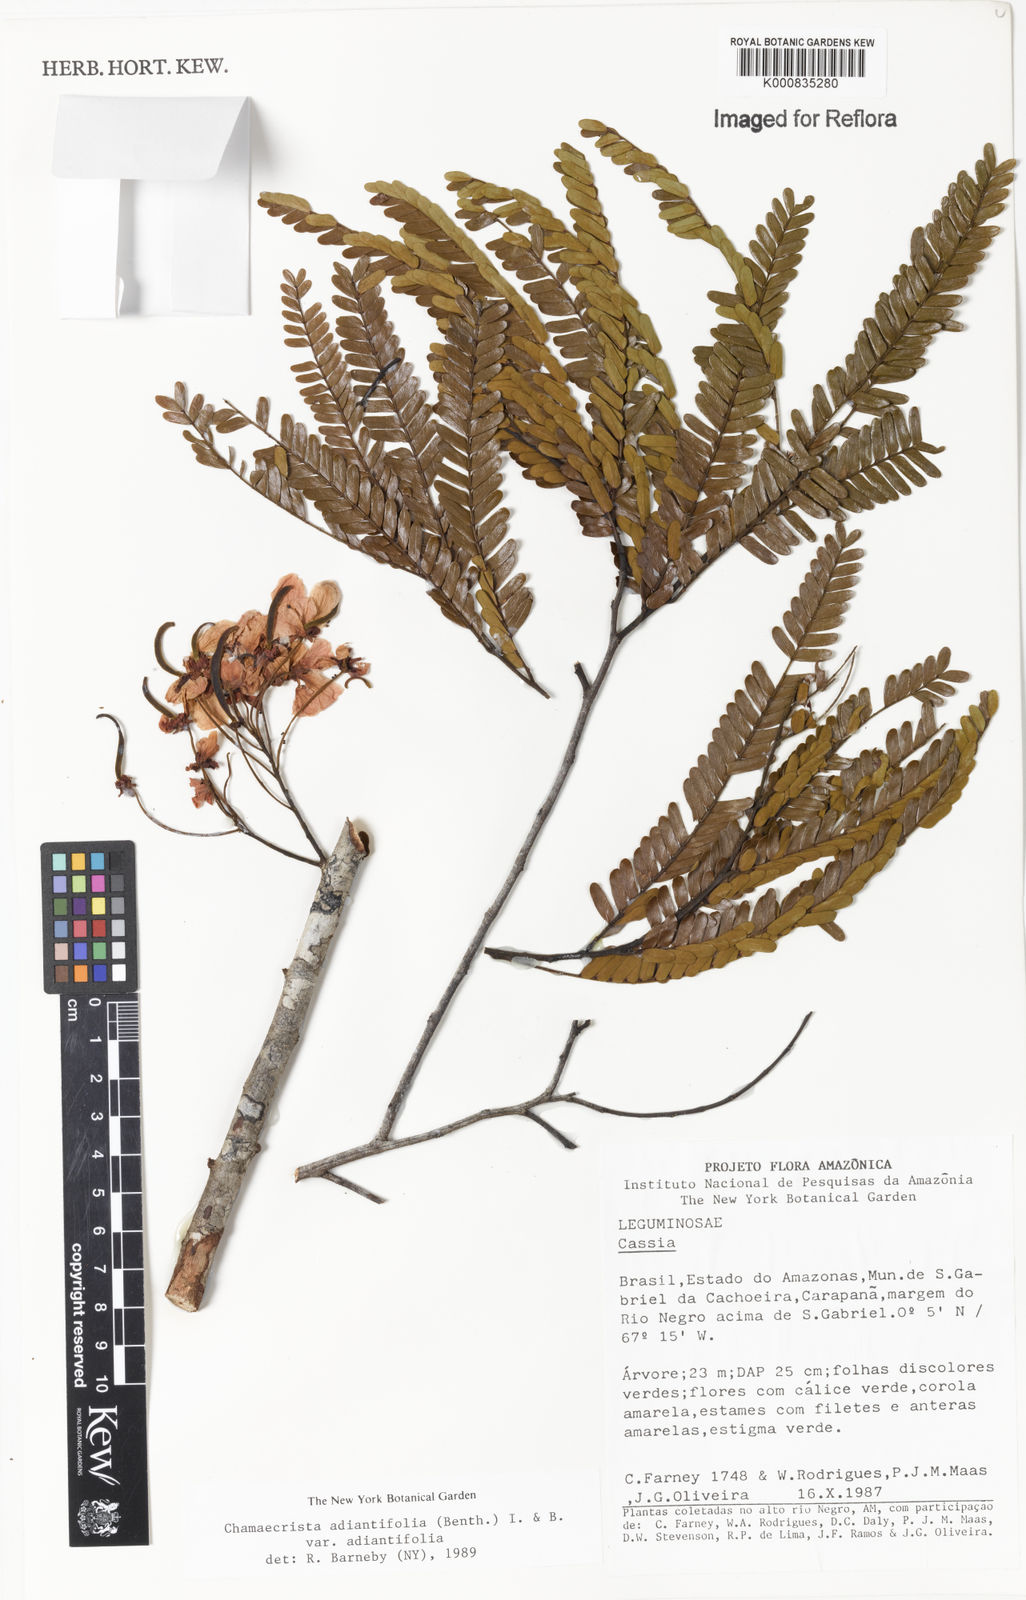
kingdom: Plantae
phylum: Tracheophyta
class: Magnoliopsida
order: Fabales
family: Fabaceae
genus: Chamaecrista
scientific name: Chamaecrista adiantifolia
